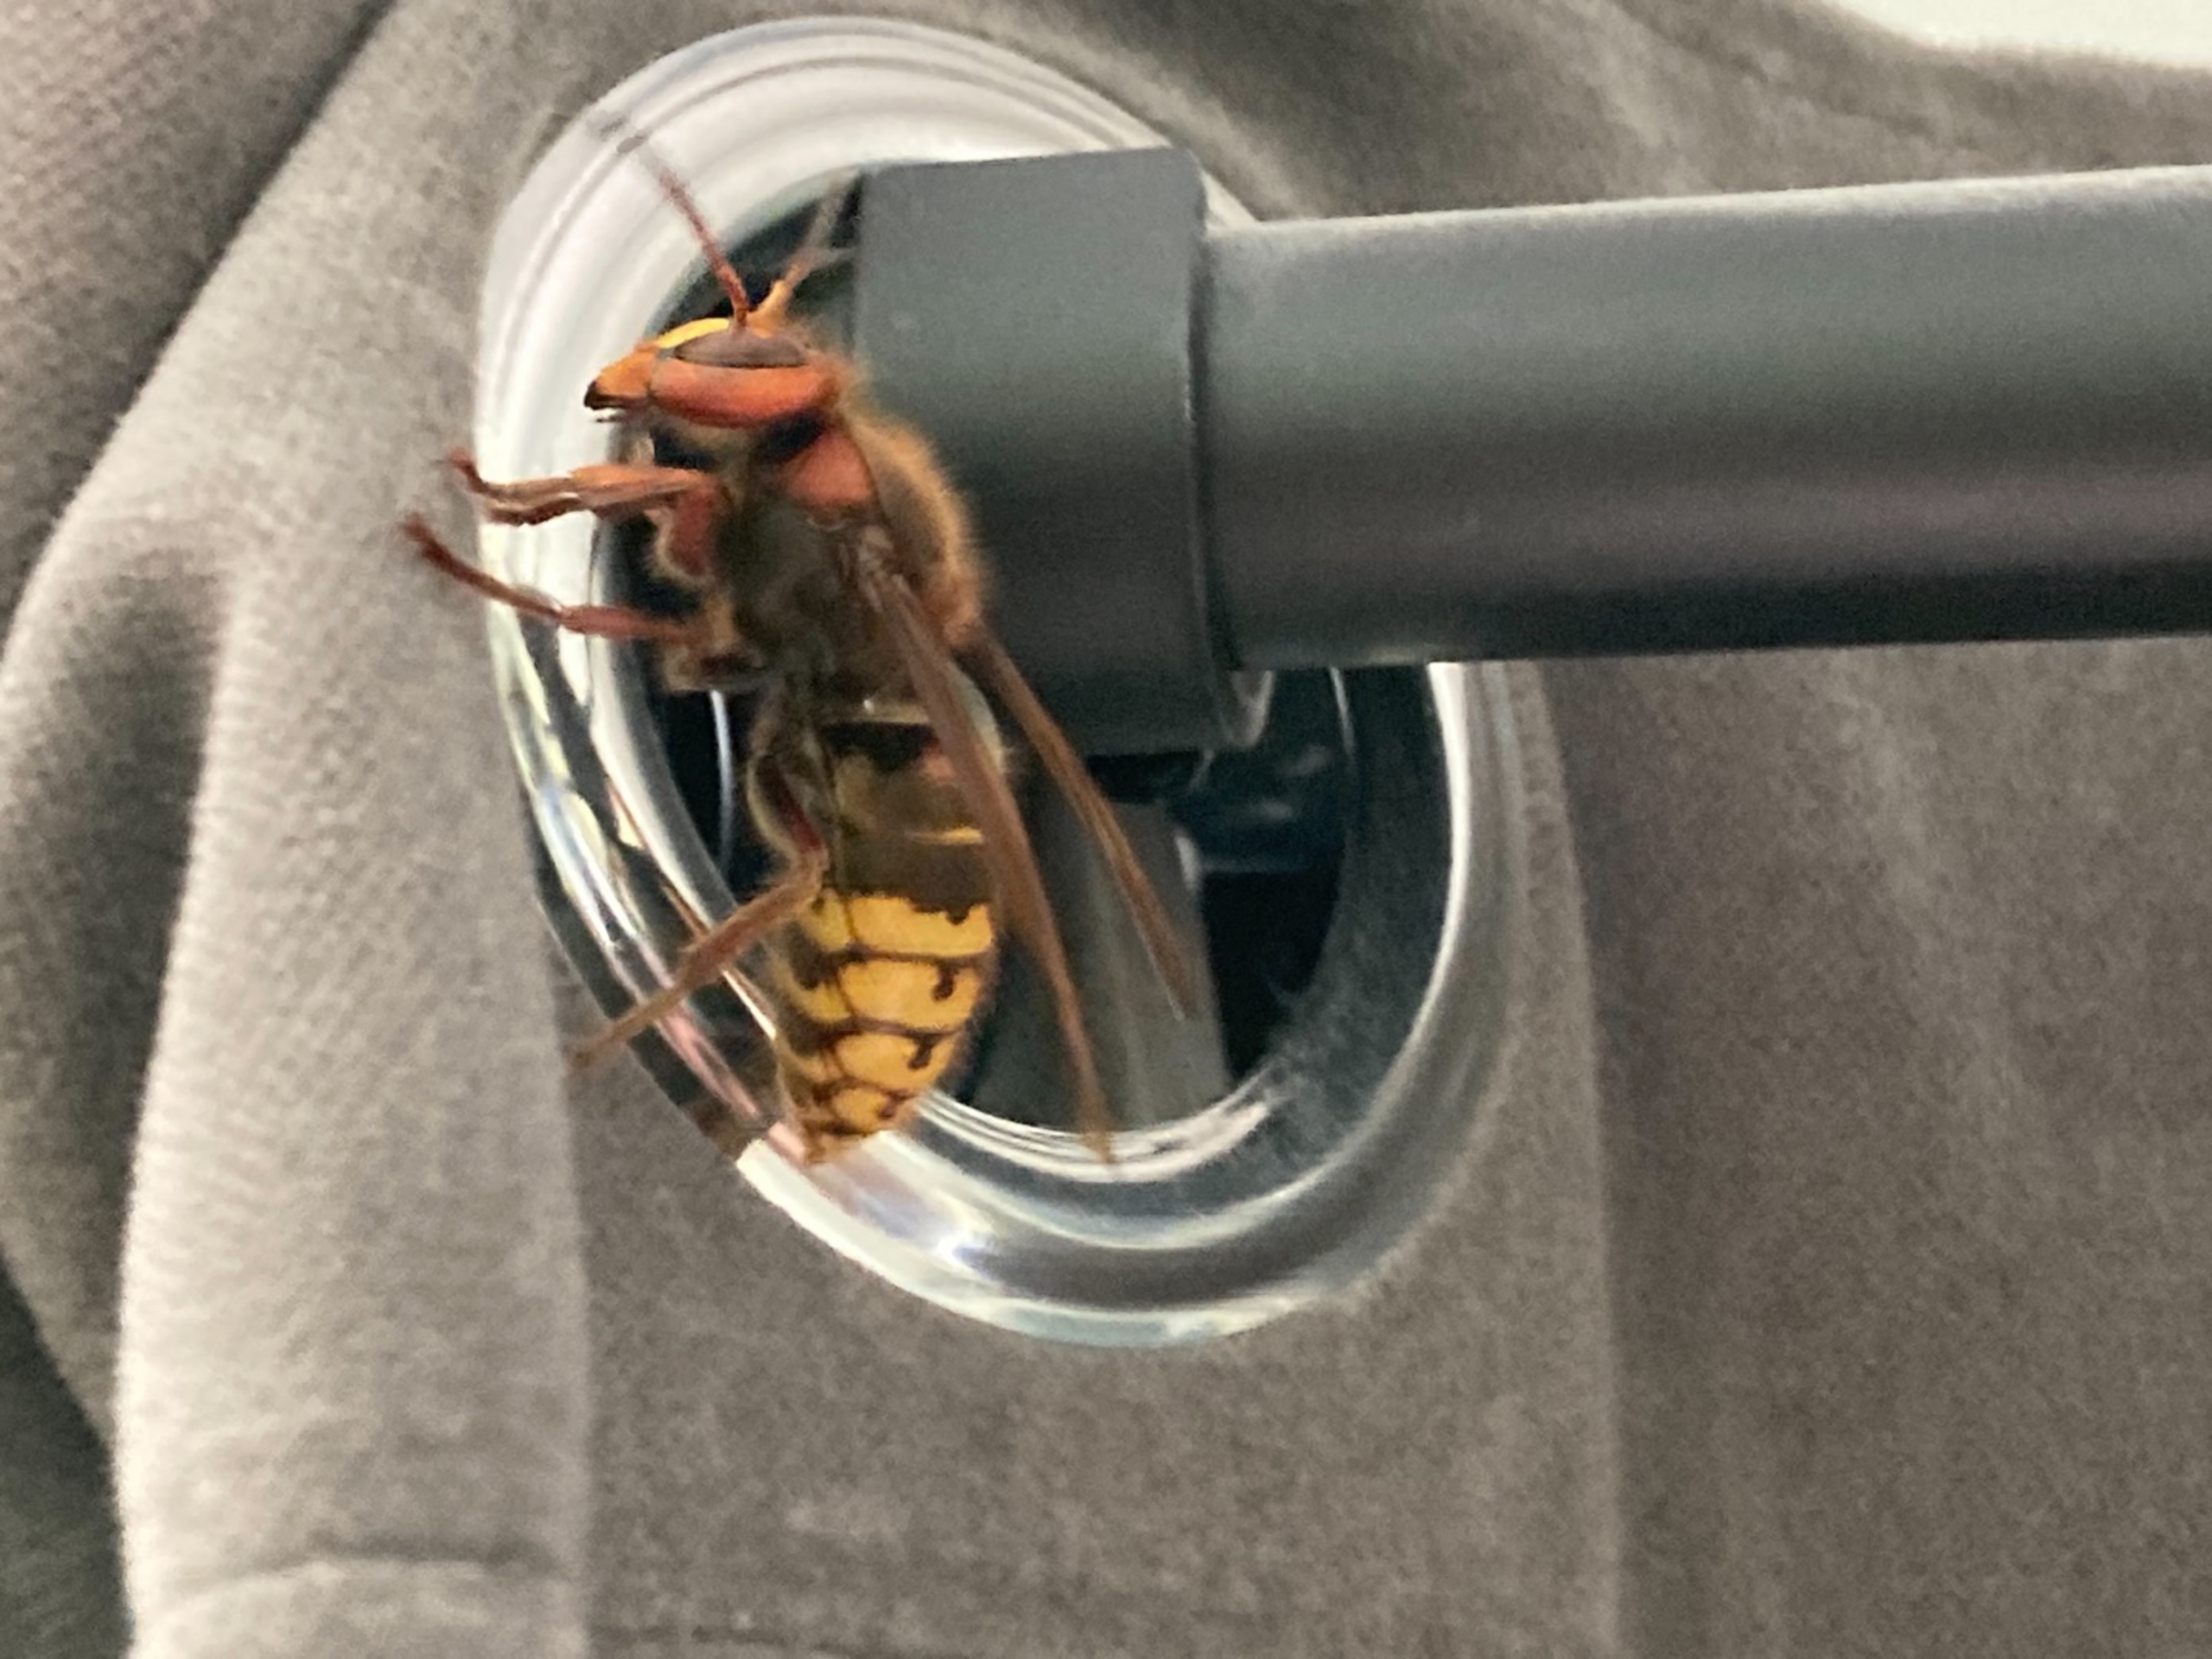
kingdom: Animalia
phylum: Arthropoda
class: Insecta
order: Hymenoptera
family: Vespidae
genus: Vespa
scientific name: Vespa crabro
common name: Stor gedehams
